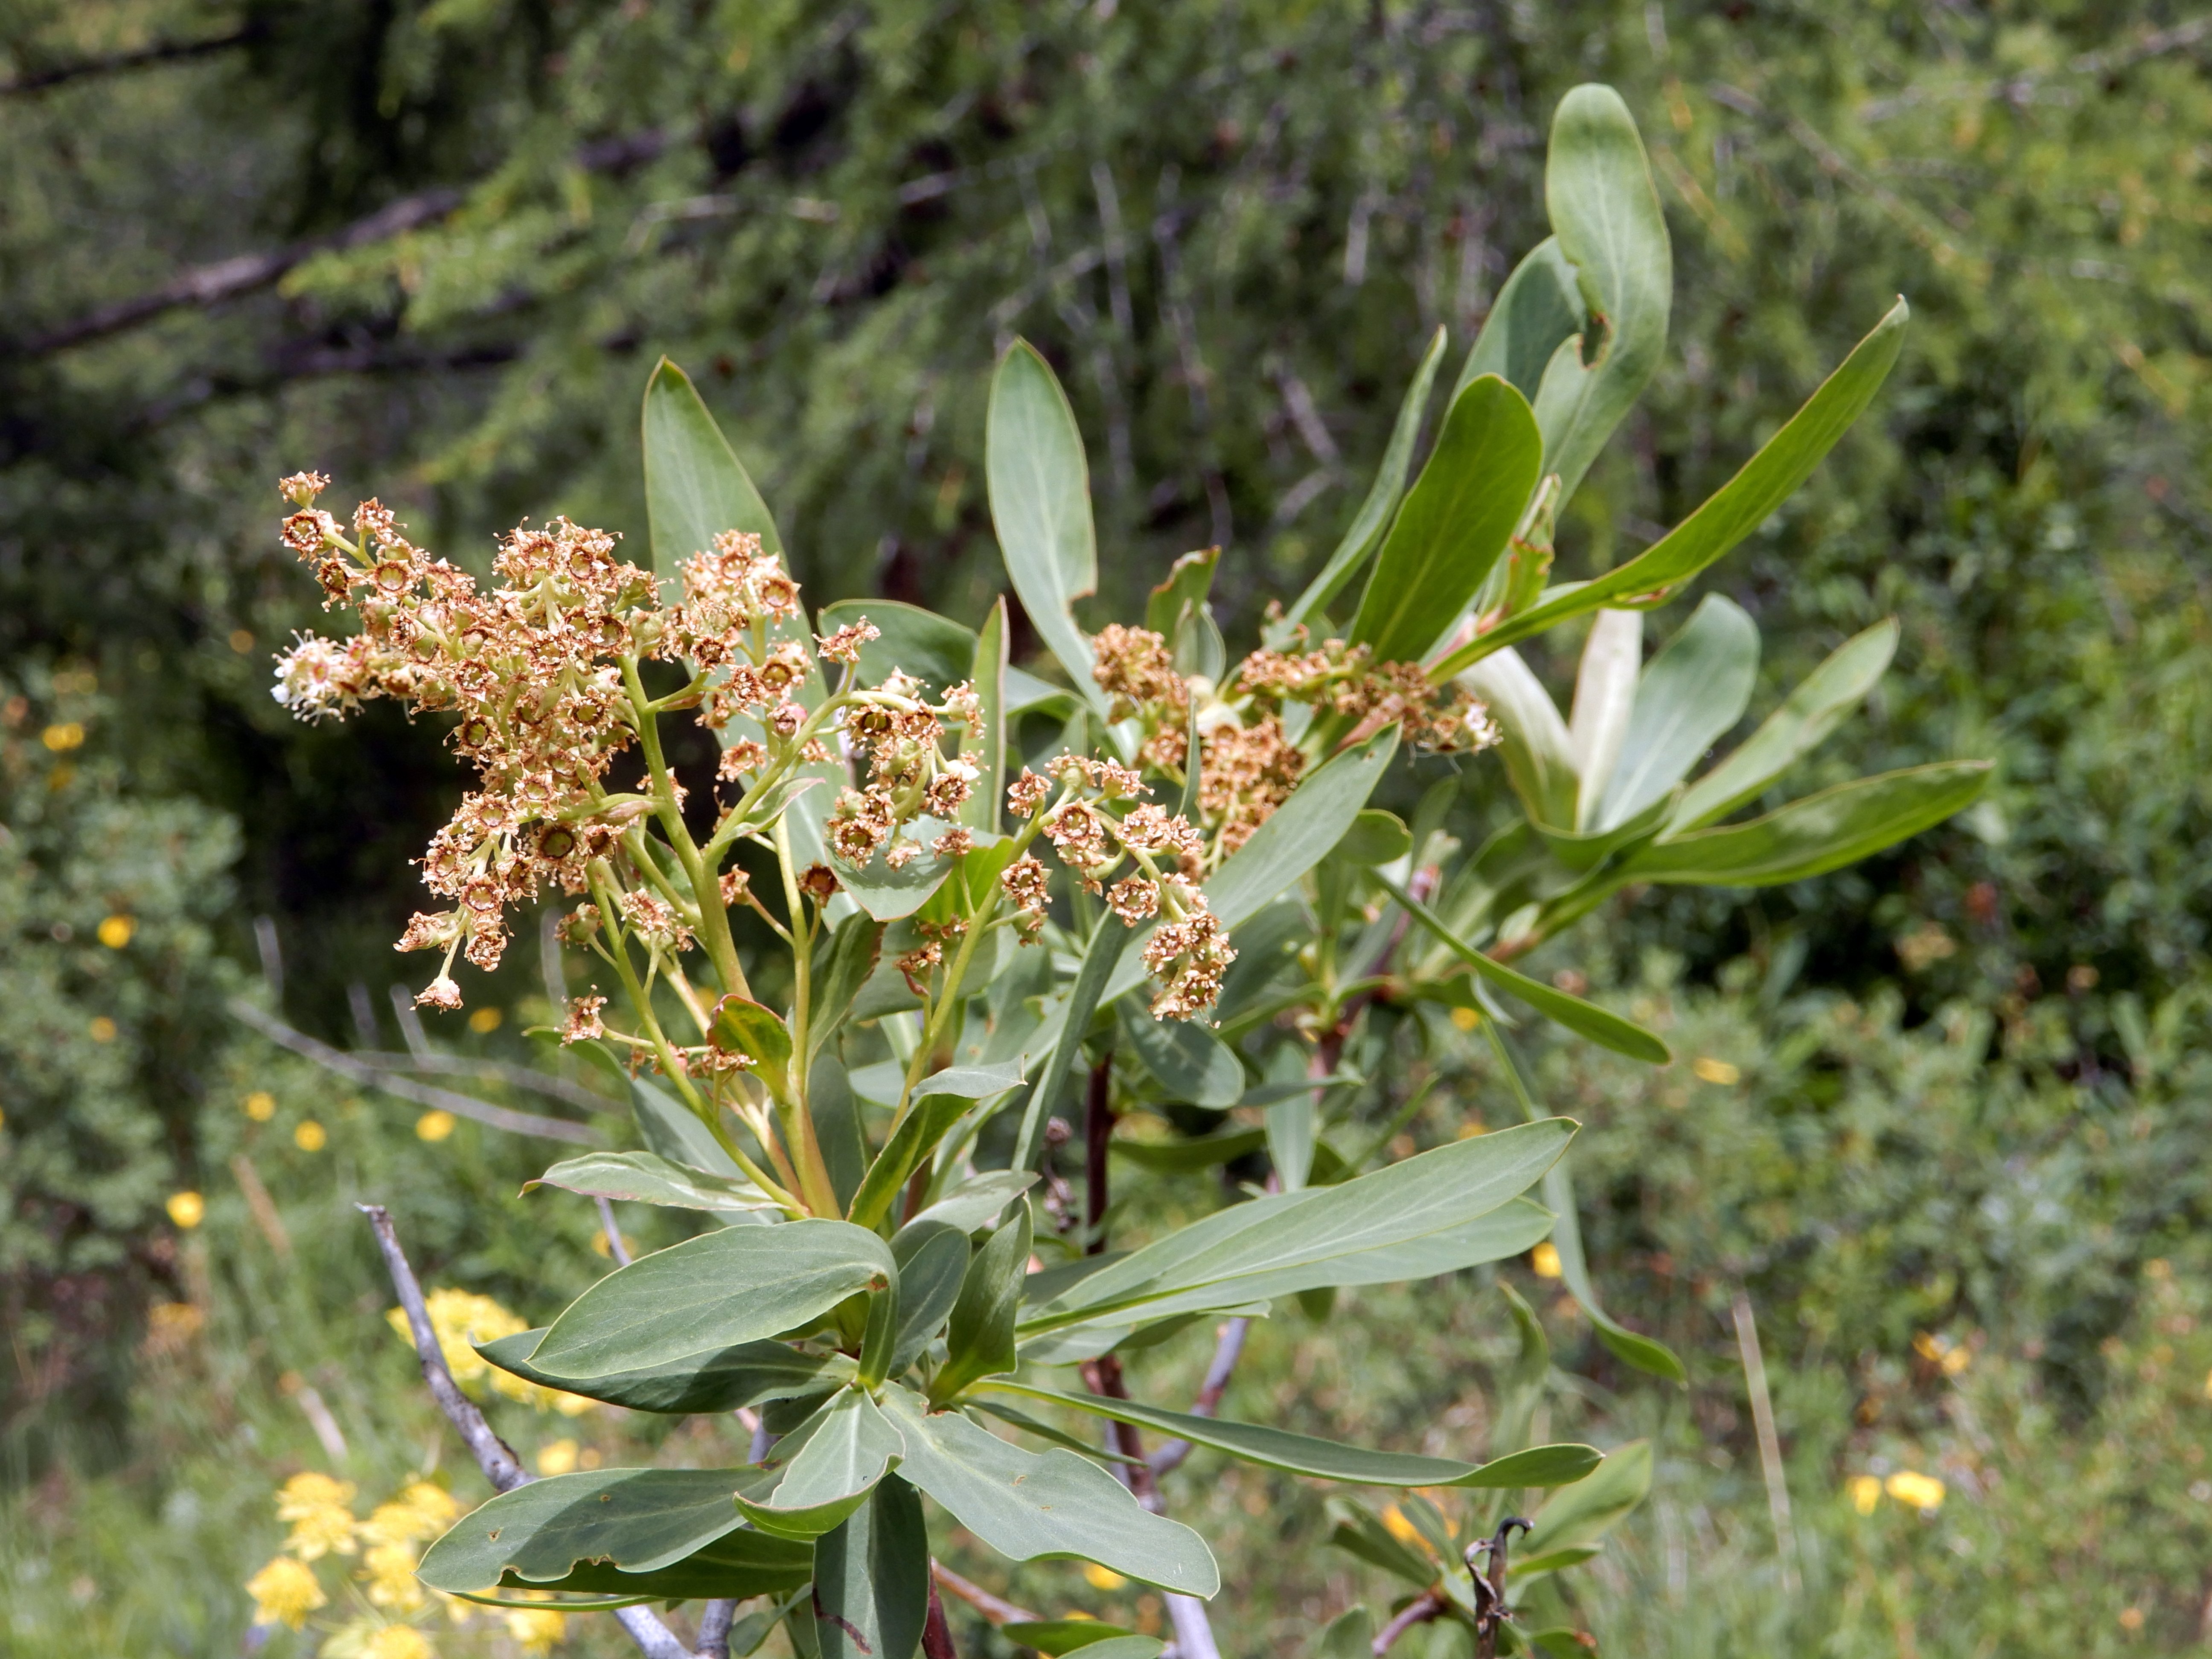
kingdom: Plantae
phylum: Tracheophyta
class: Magnoliopsida
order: Rosales
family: Rosaceae
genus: Sibiraea
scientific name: Sibiraea laevigata
